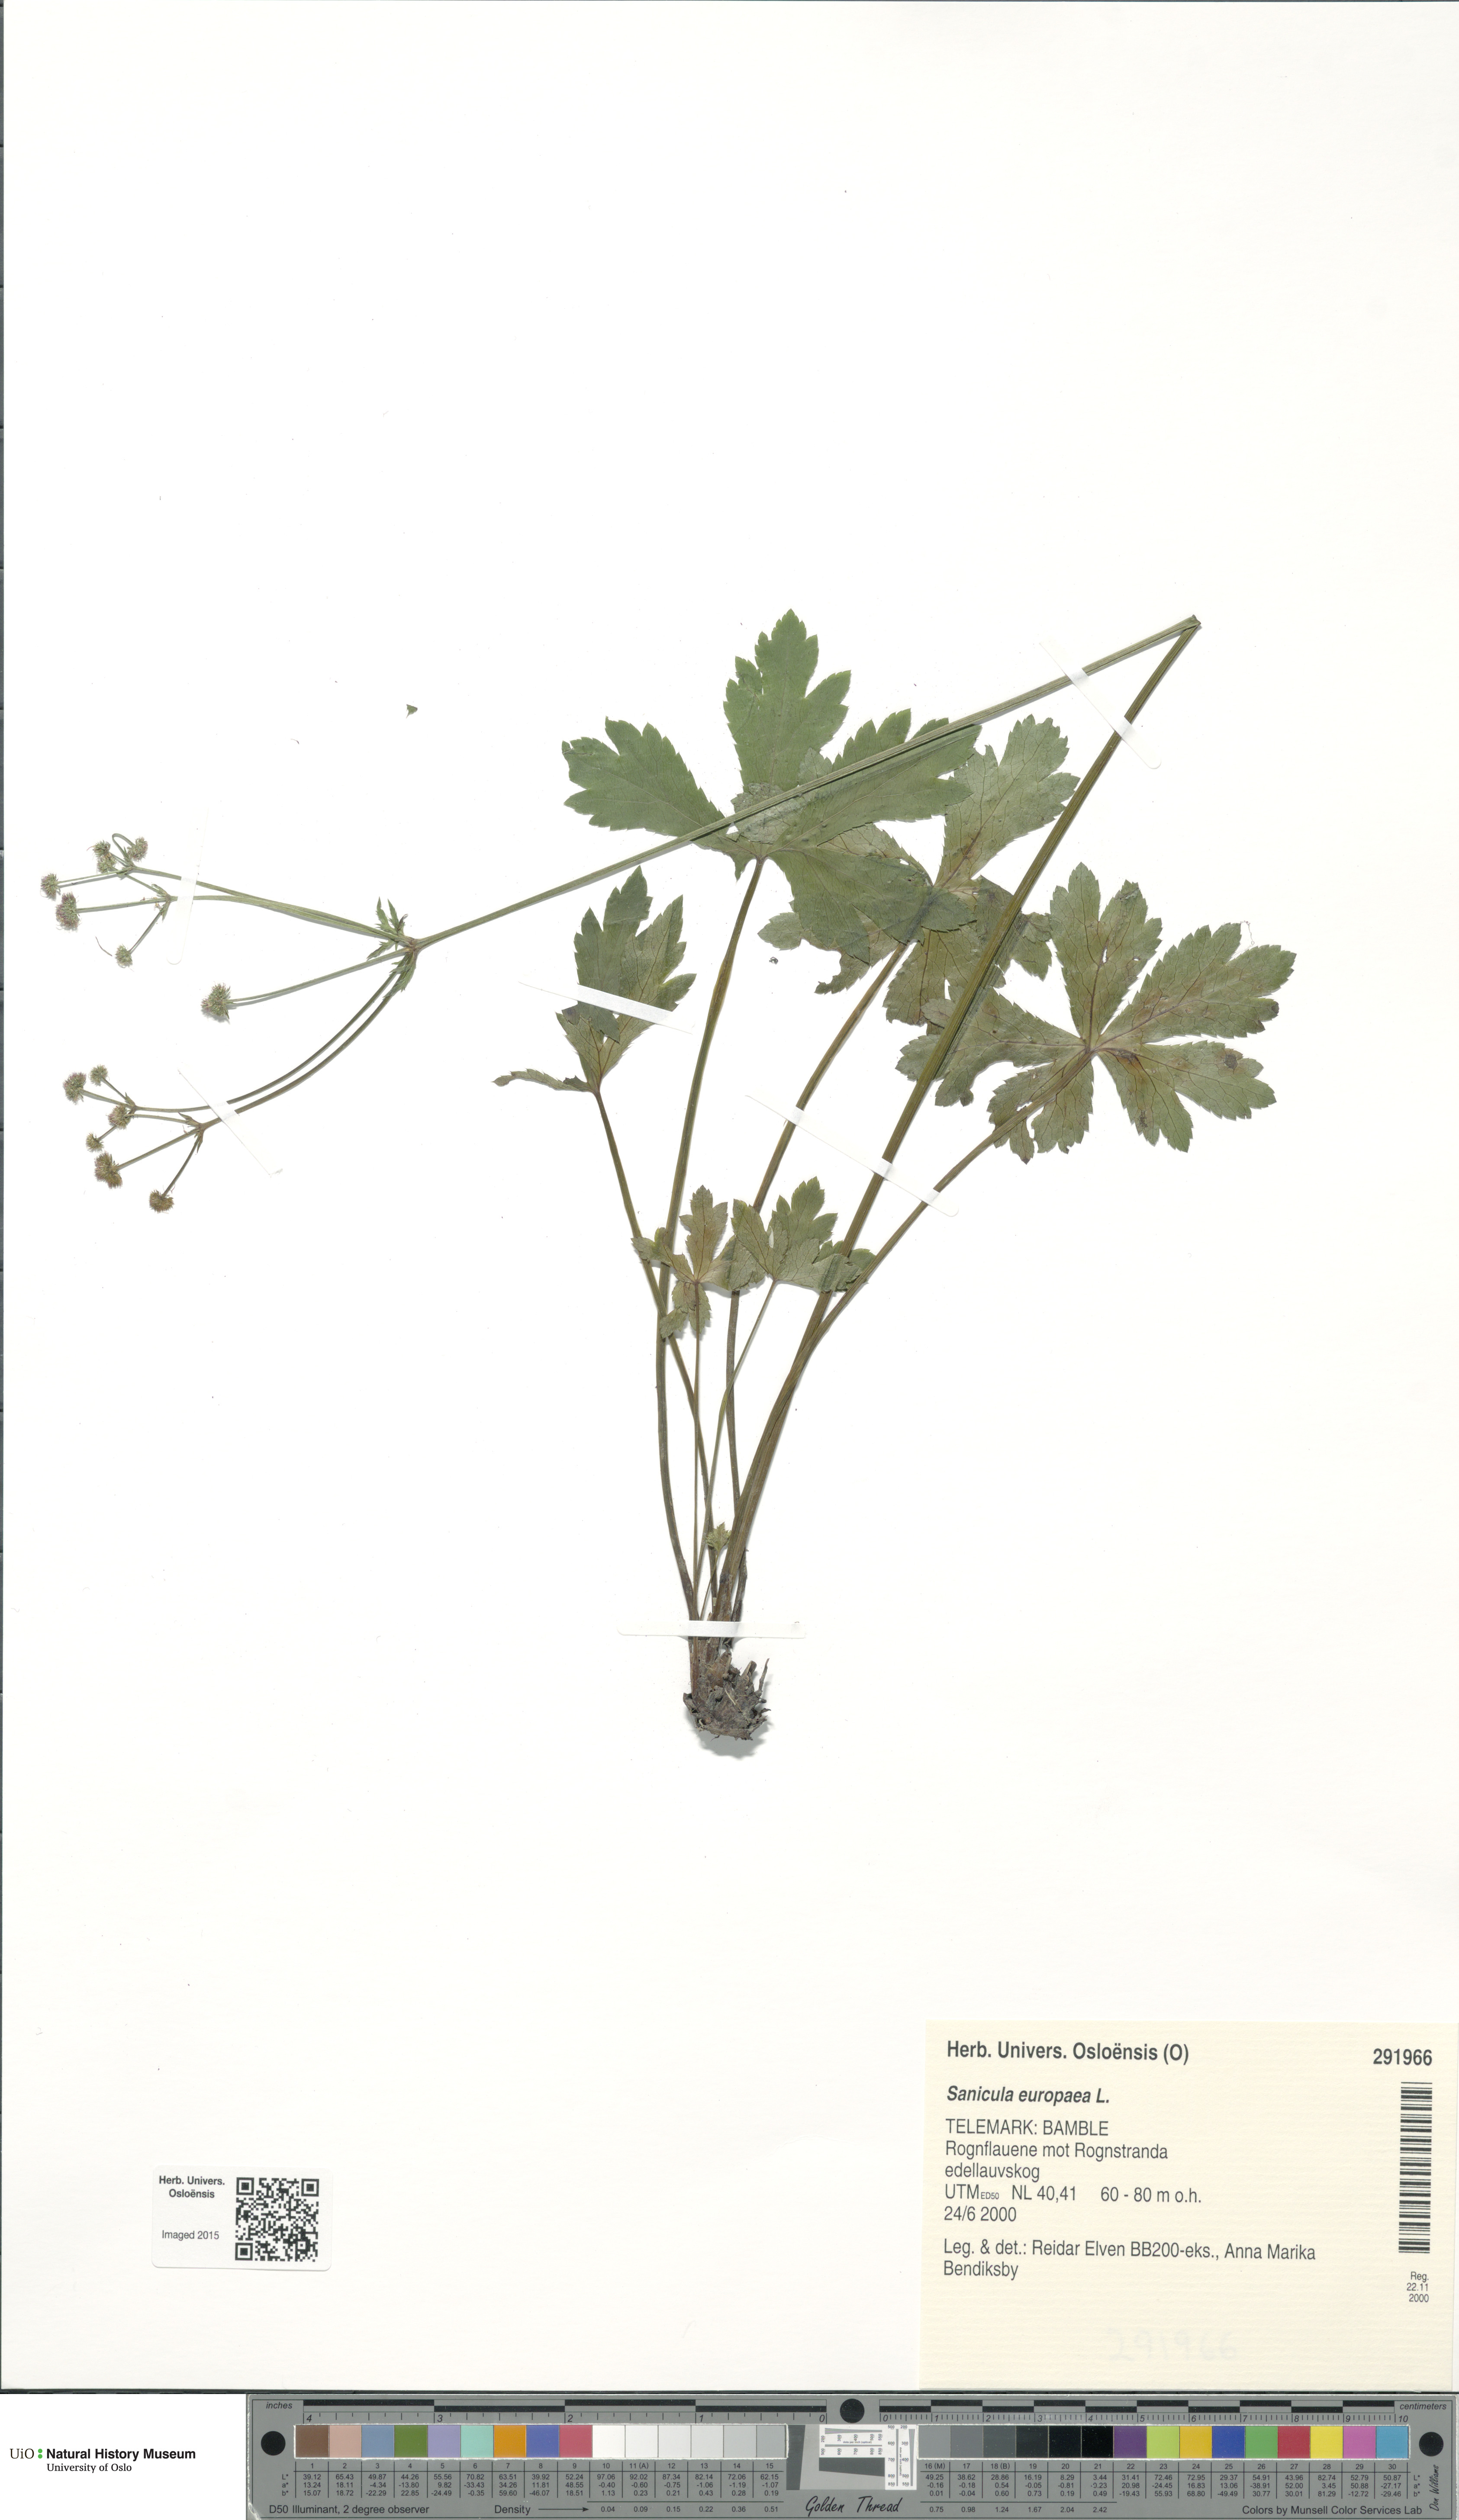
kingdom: Plantae
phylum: Tracheophyta
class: Magnoliopsida
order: Apiales
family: Apiaceae
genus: Sanicula
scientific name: Sanicula europaea
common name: Sanicle
